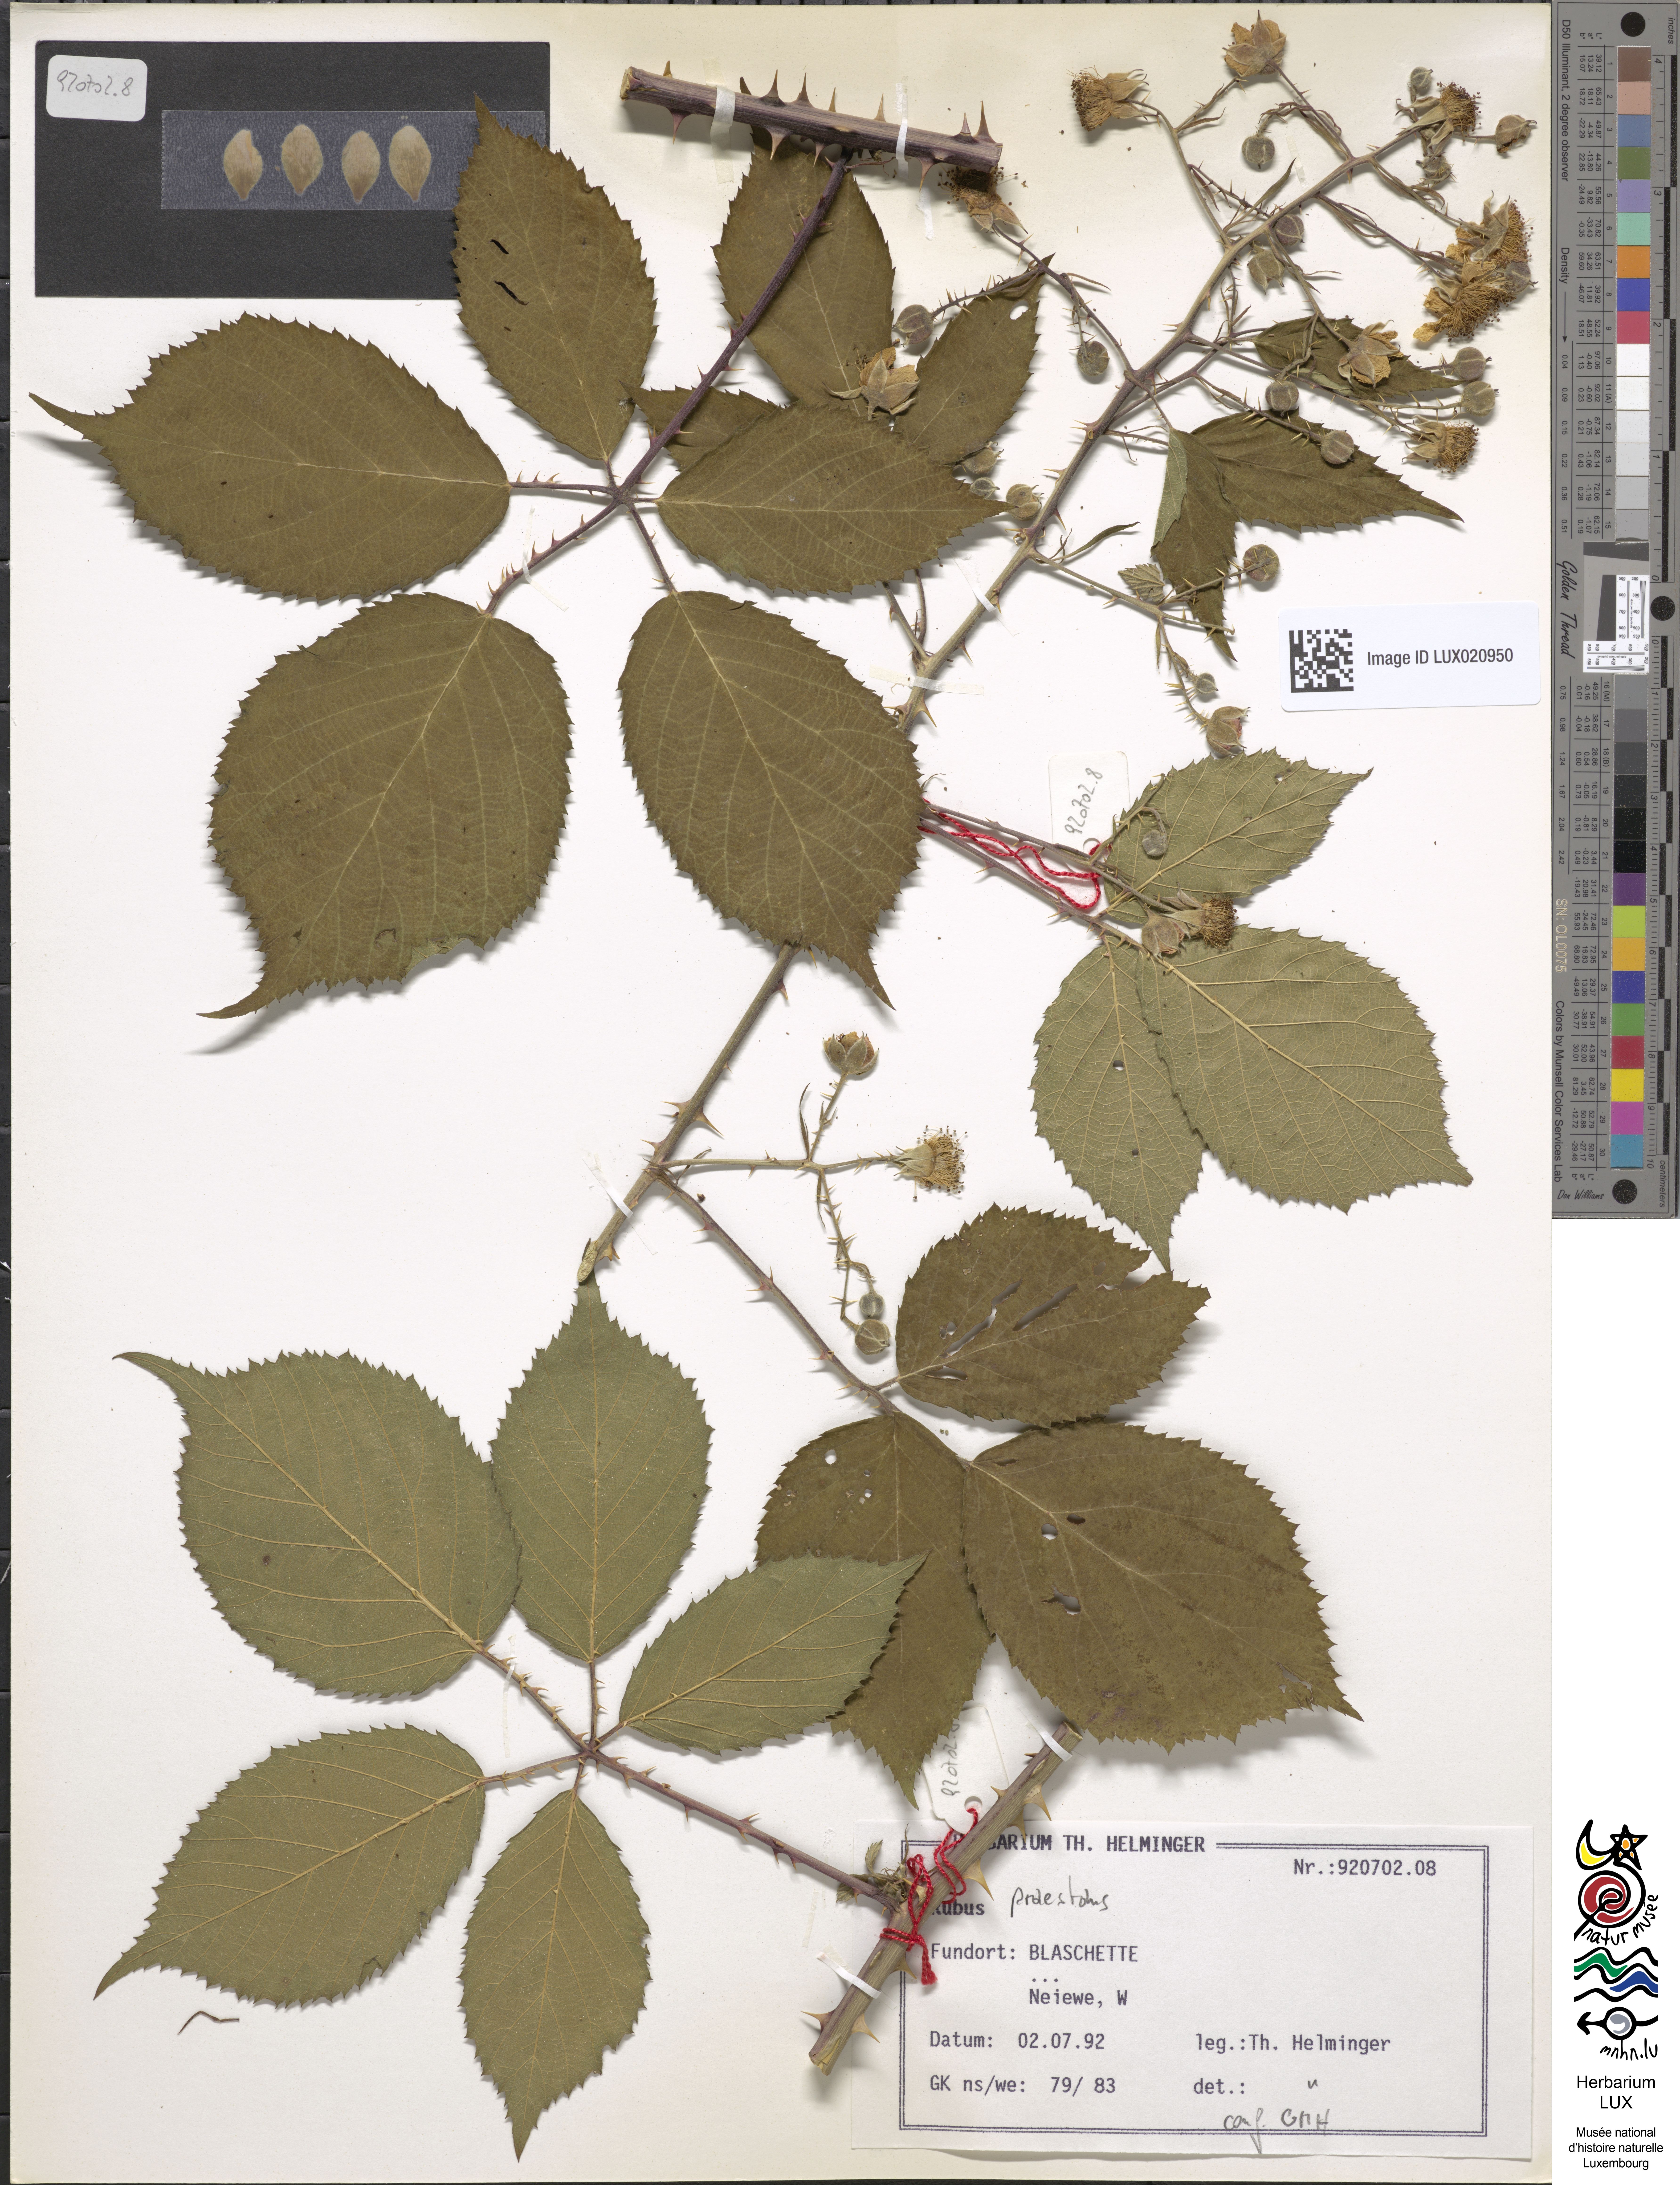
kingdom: Plantae
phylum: Tracheophyta
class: Magnoliopsida
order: Rosales
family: Rosaceae
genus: Rubus
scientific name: Rubus praestans
